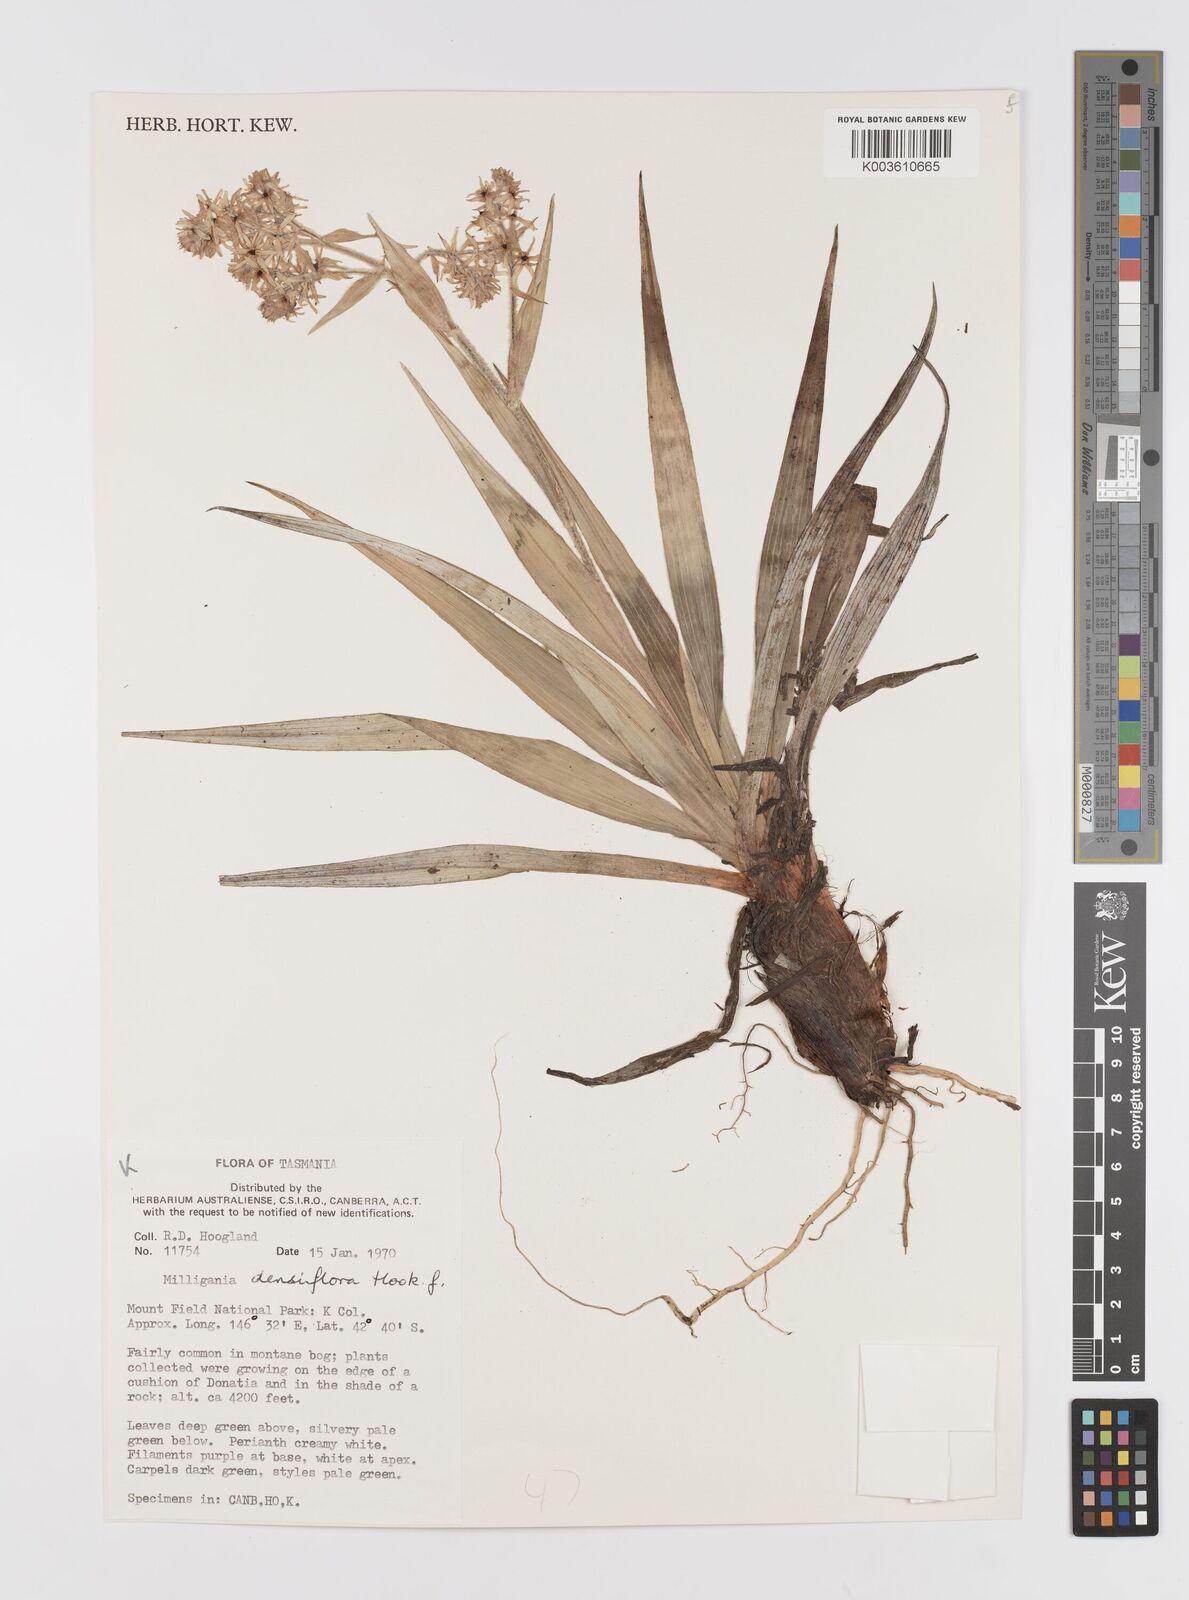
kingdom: Plantae
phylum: Tracheophyta
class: Liliopsida
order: Asparagales
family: Asteliaceae
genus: Milligania
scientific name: Milligania densiflora
